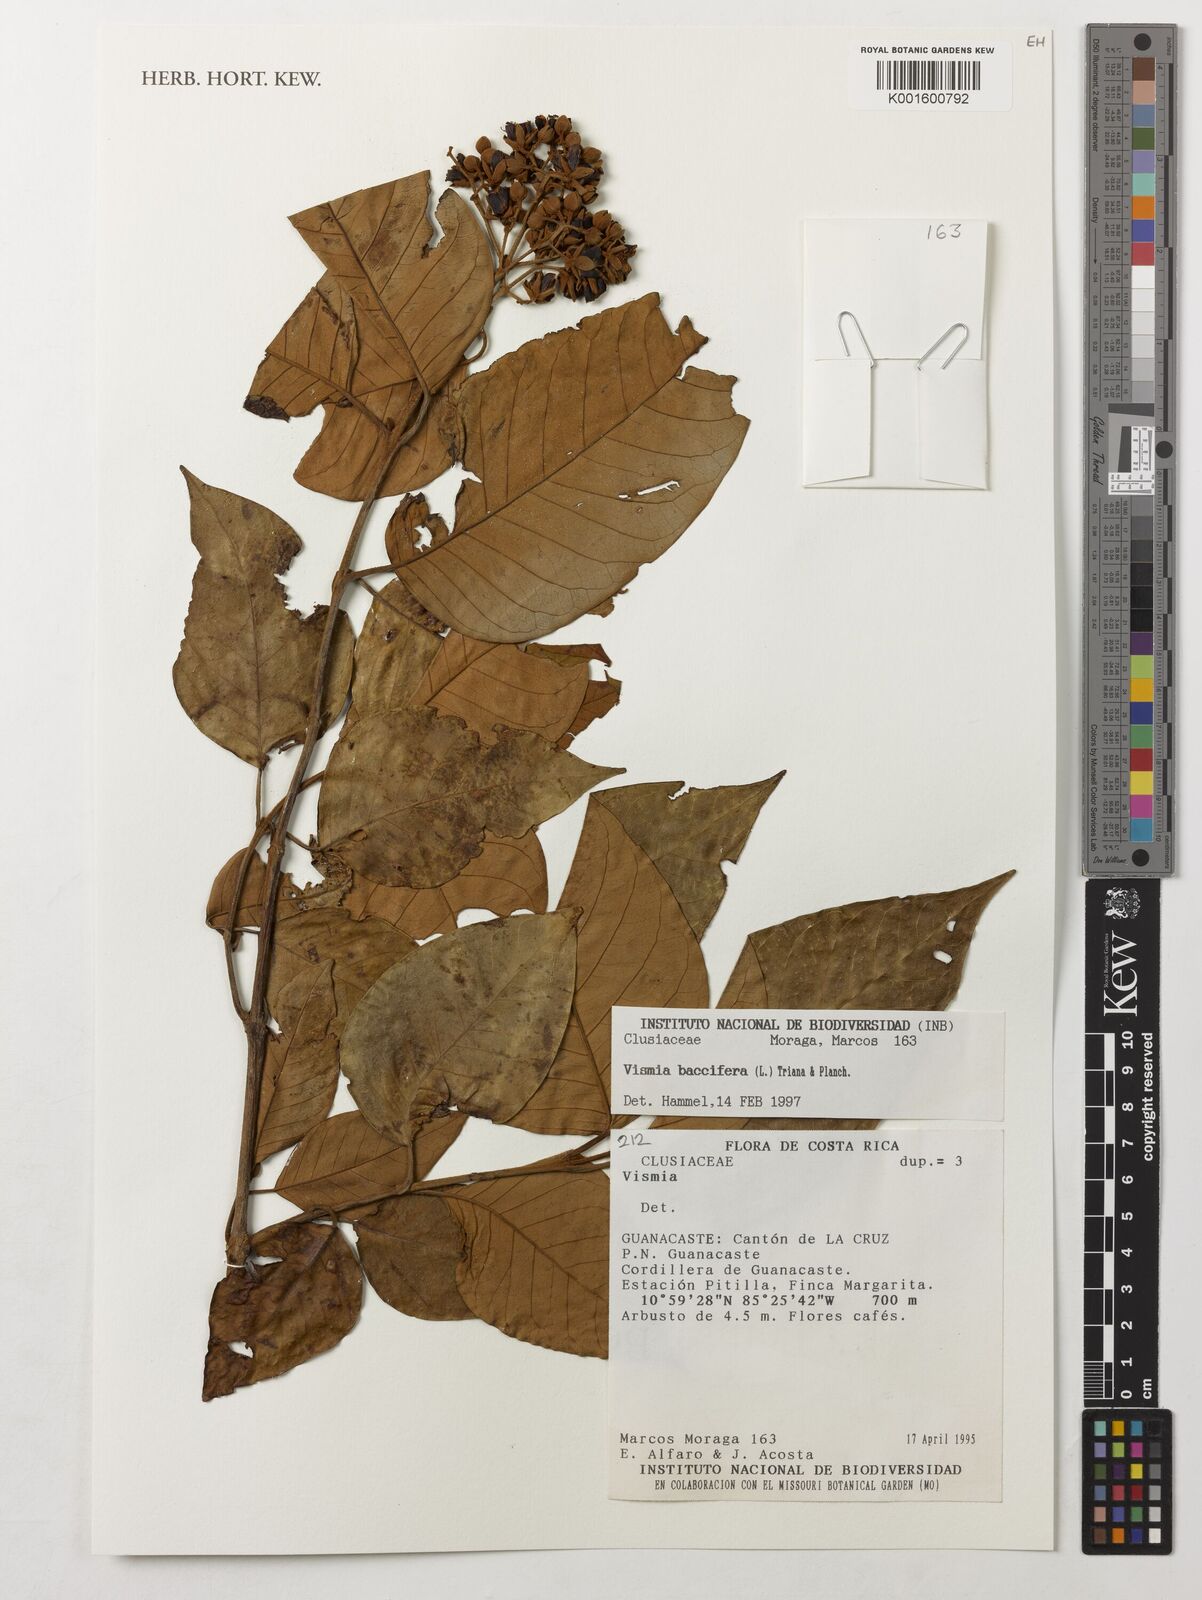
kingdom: Plantae
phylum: Tracheophyta
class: Magnoliopsida
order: Malpighiales
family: Hypericaceae
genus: Vismia
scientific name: Vismia baccifera
